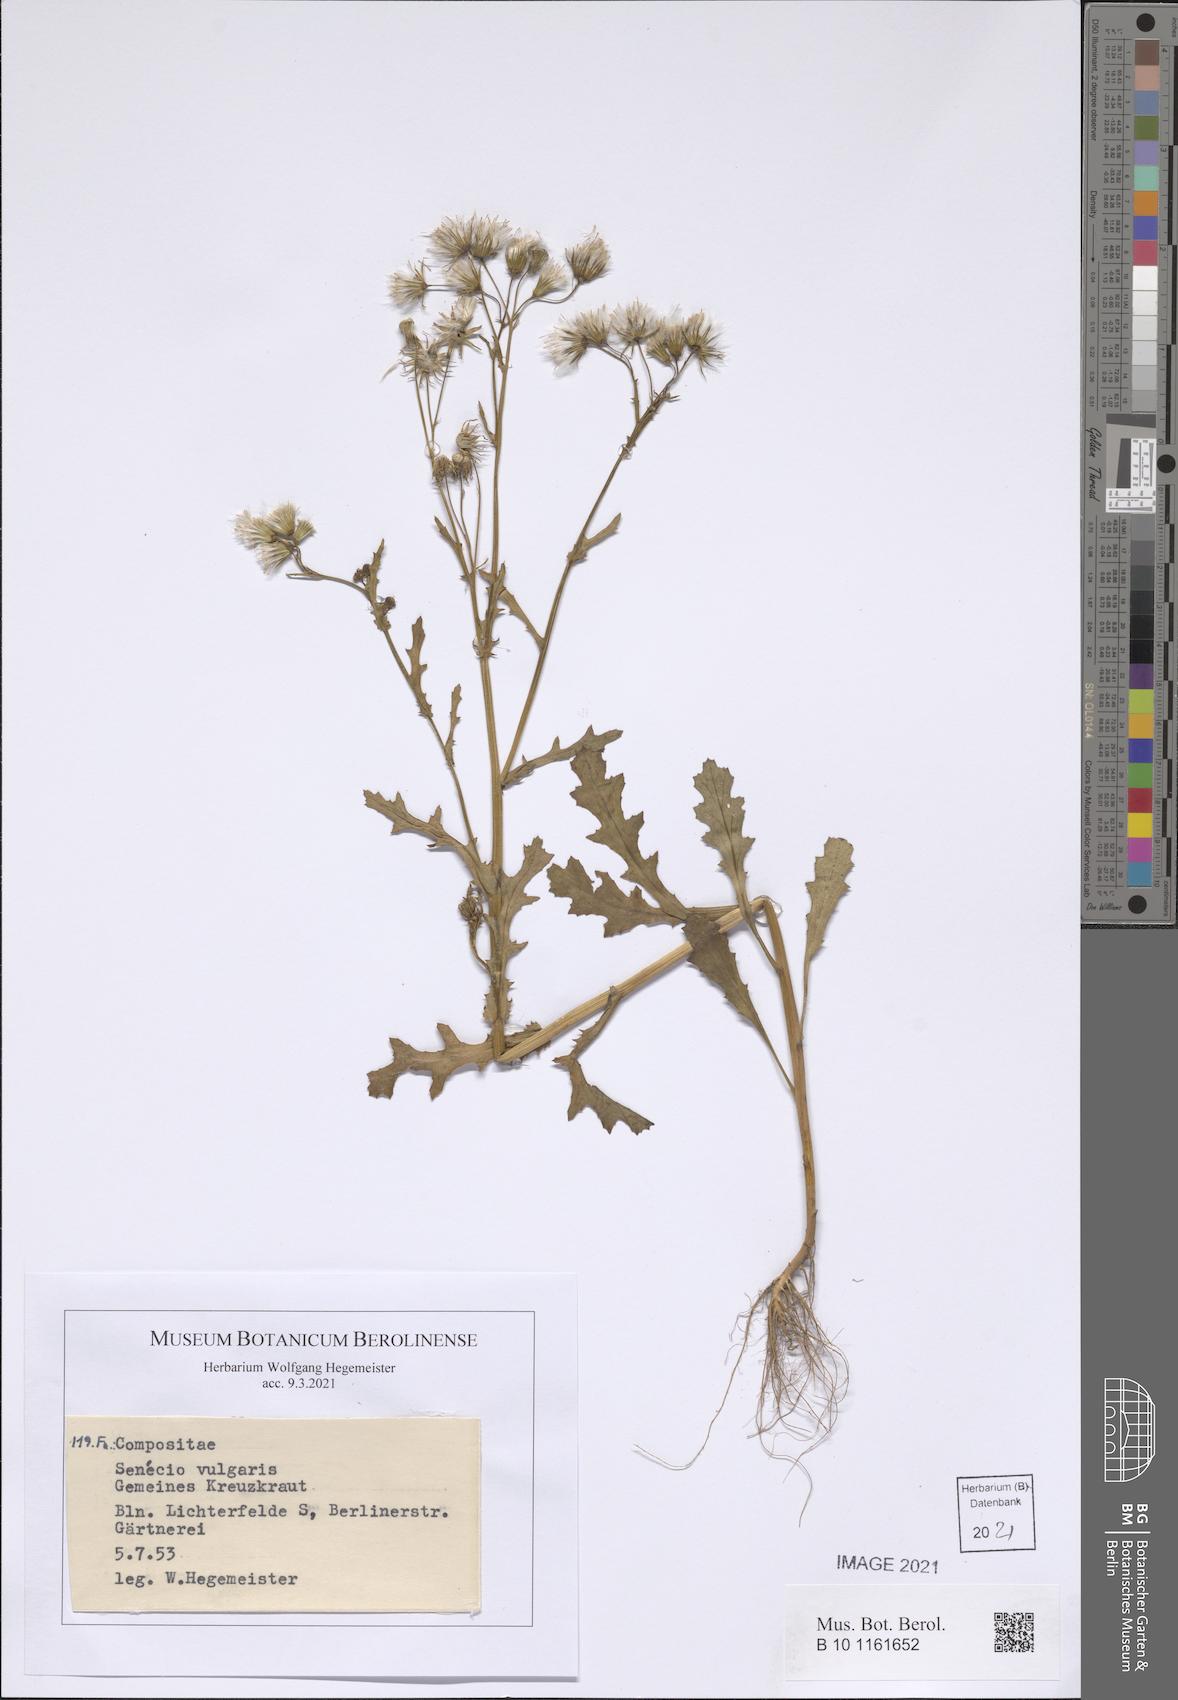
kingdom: Plantae
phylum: Tracheophyta
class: Magnoliopsida
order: Asterales
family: Asteraceae
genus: Senecio
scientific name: Senecio vulgaris
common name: Old-man-in-the-spring
